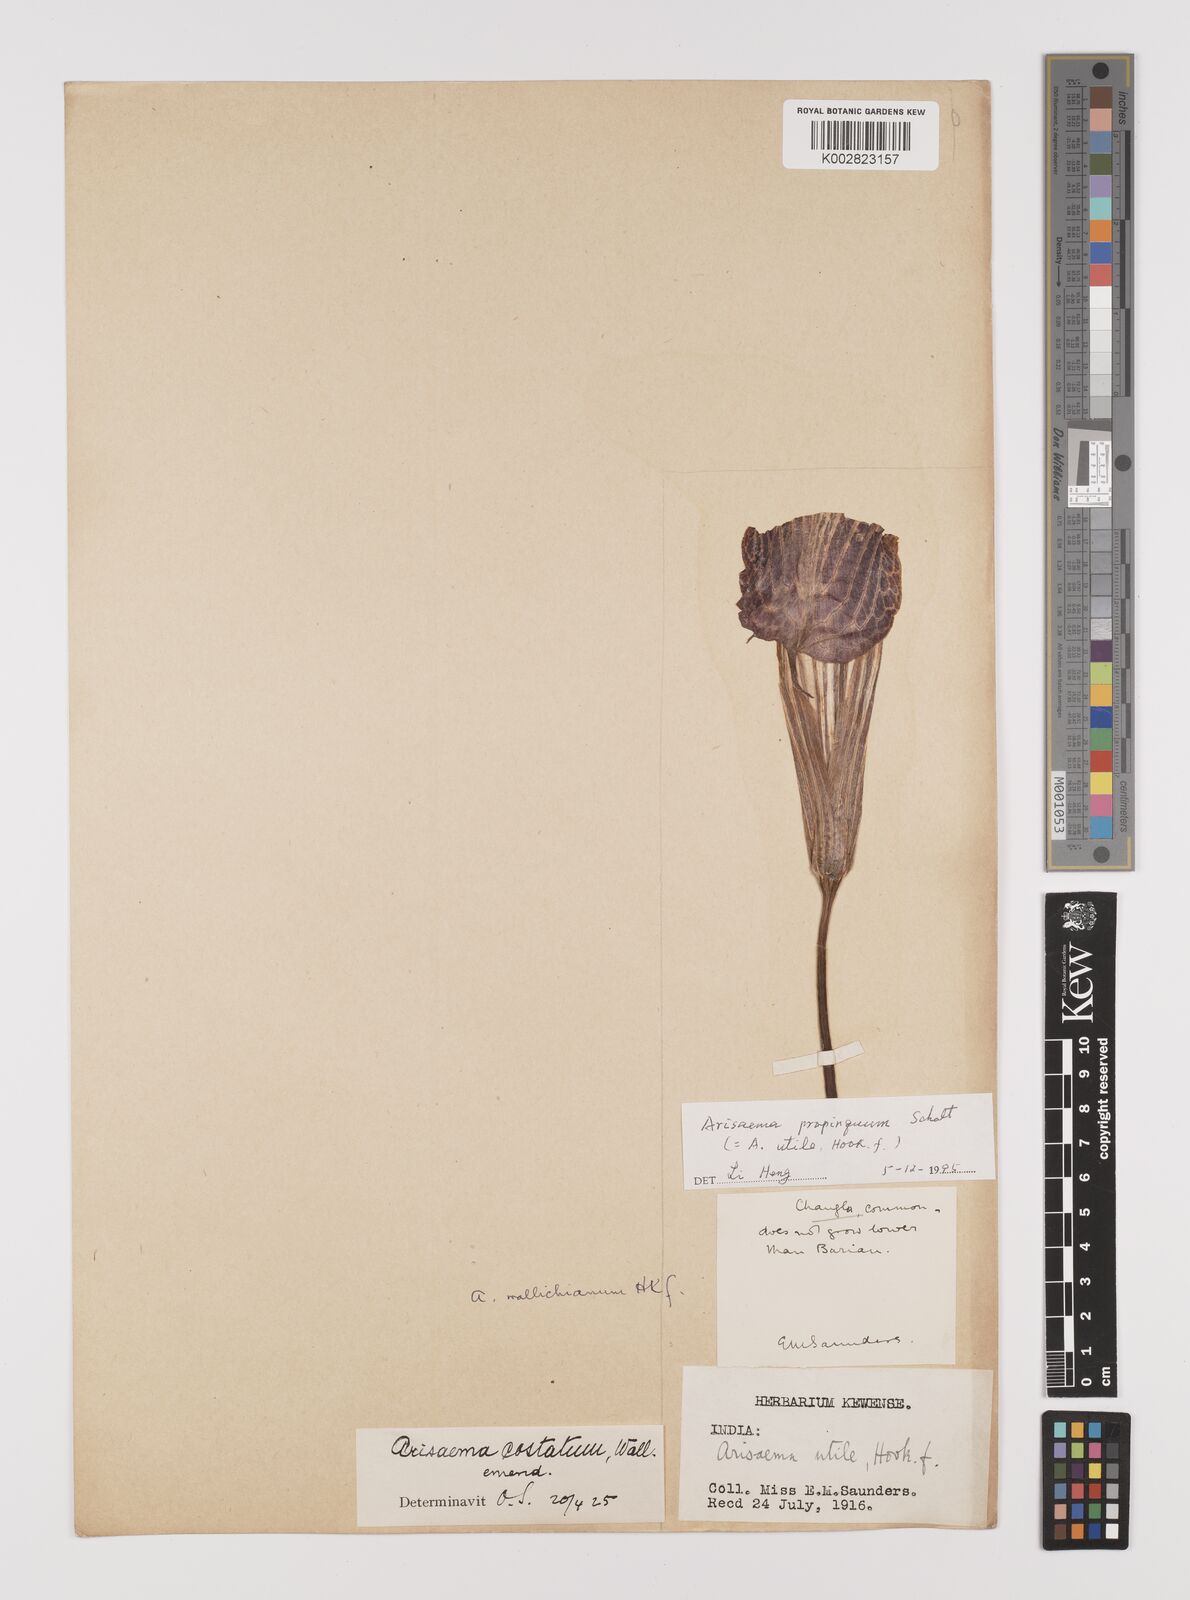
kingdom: Plantae
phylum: Tracheophyta
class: Liliopsida
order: Alismatales
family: Araceae
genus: Arisaema
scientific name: Arisaema propinquum
